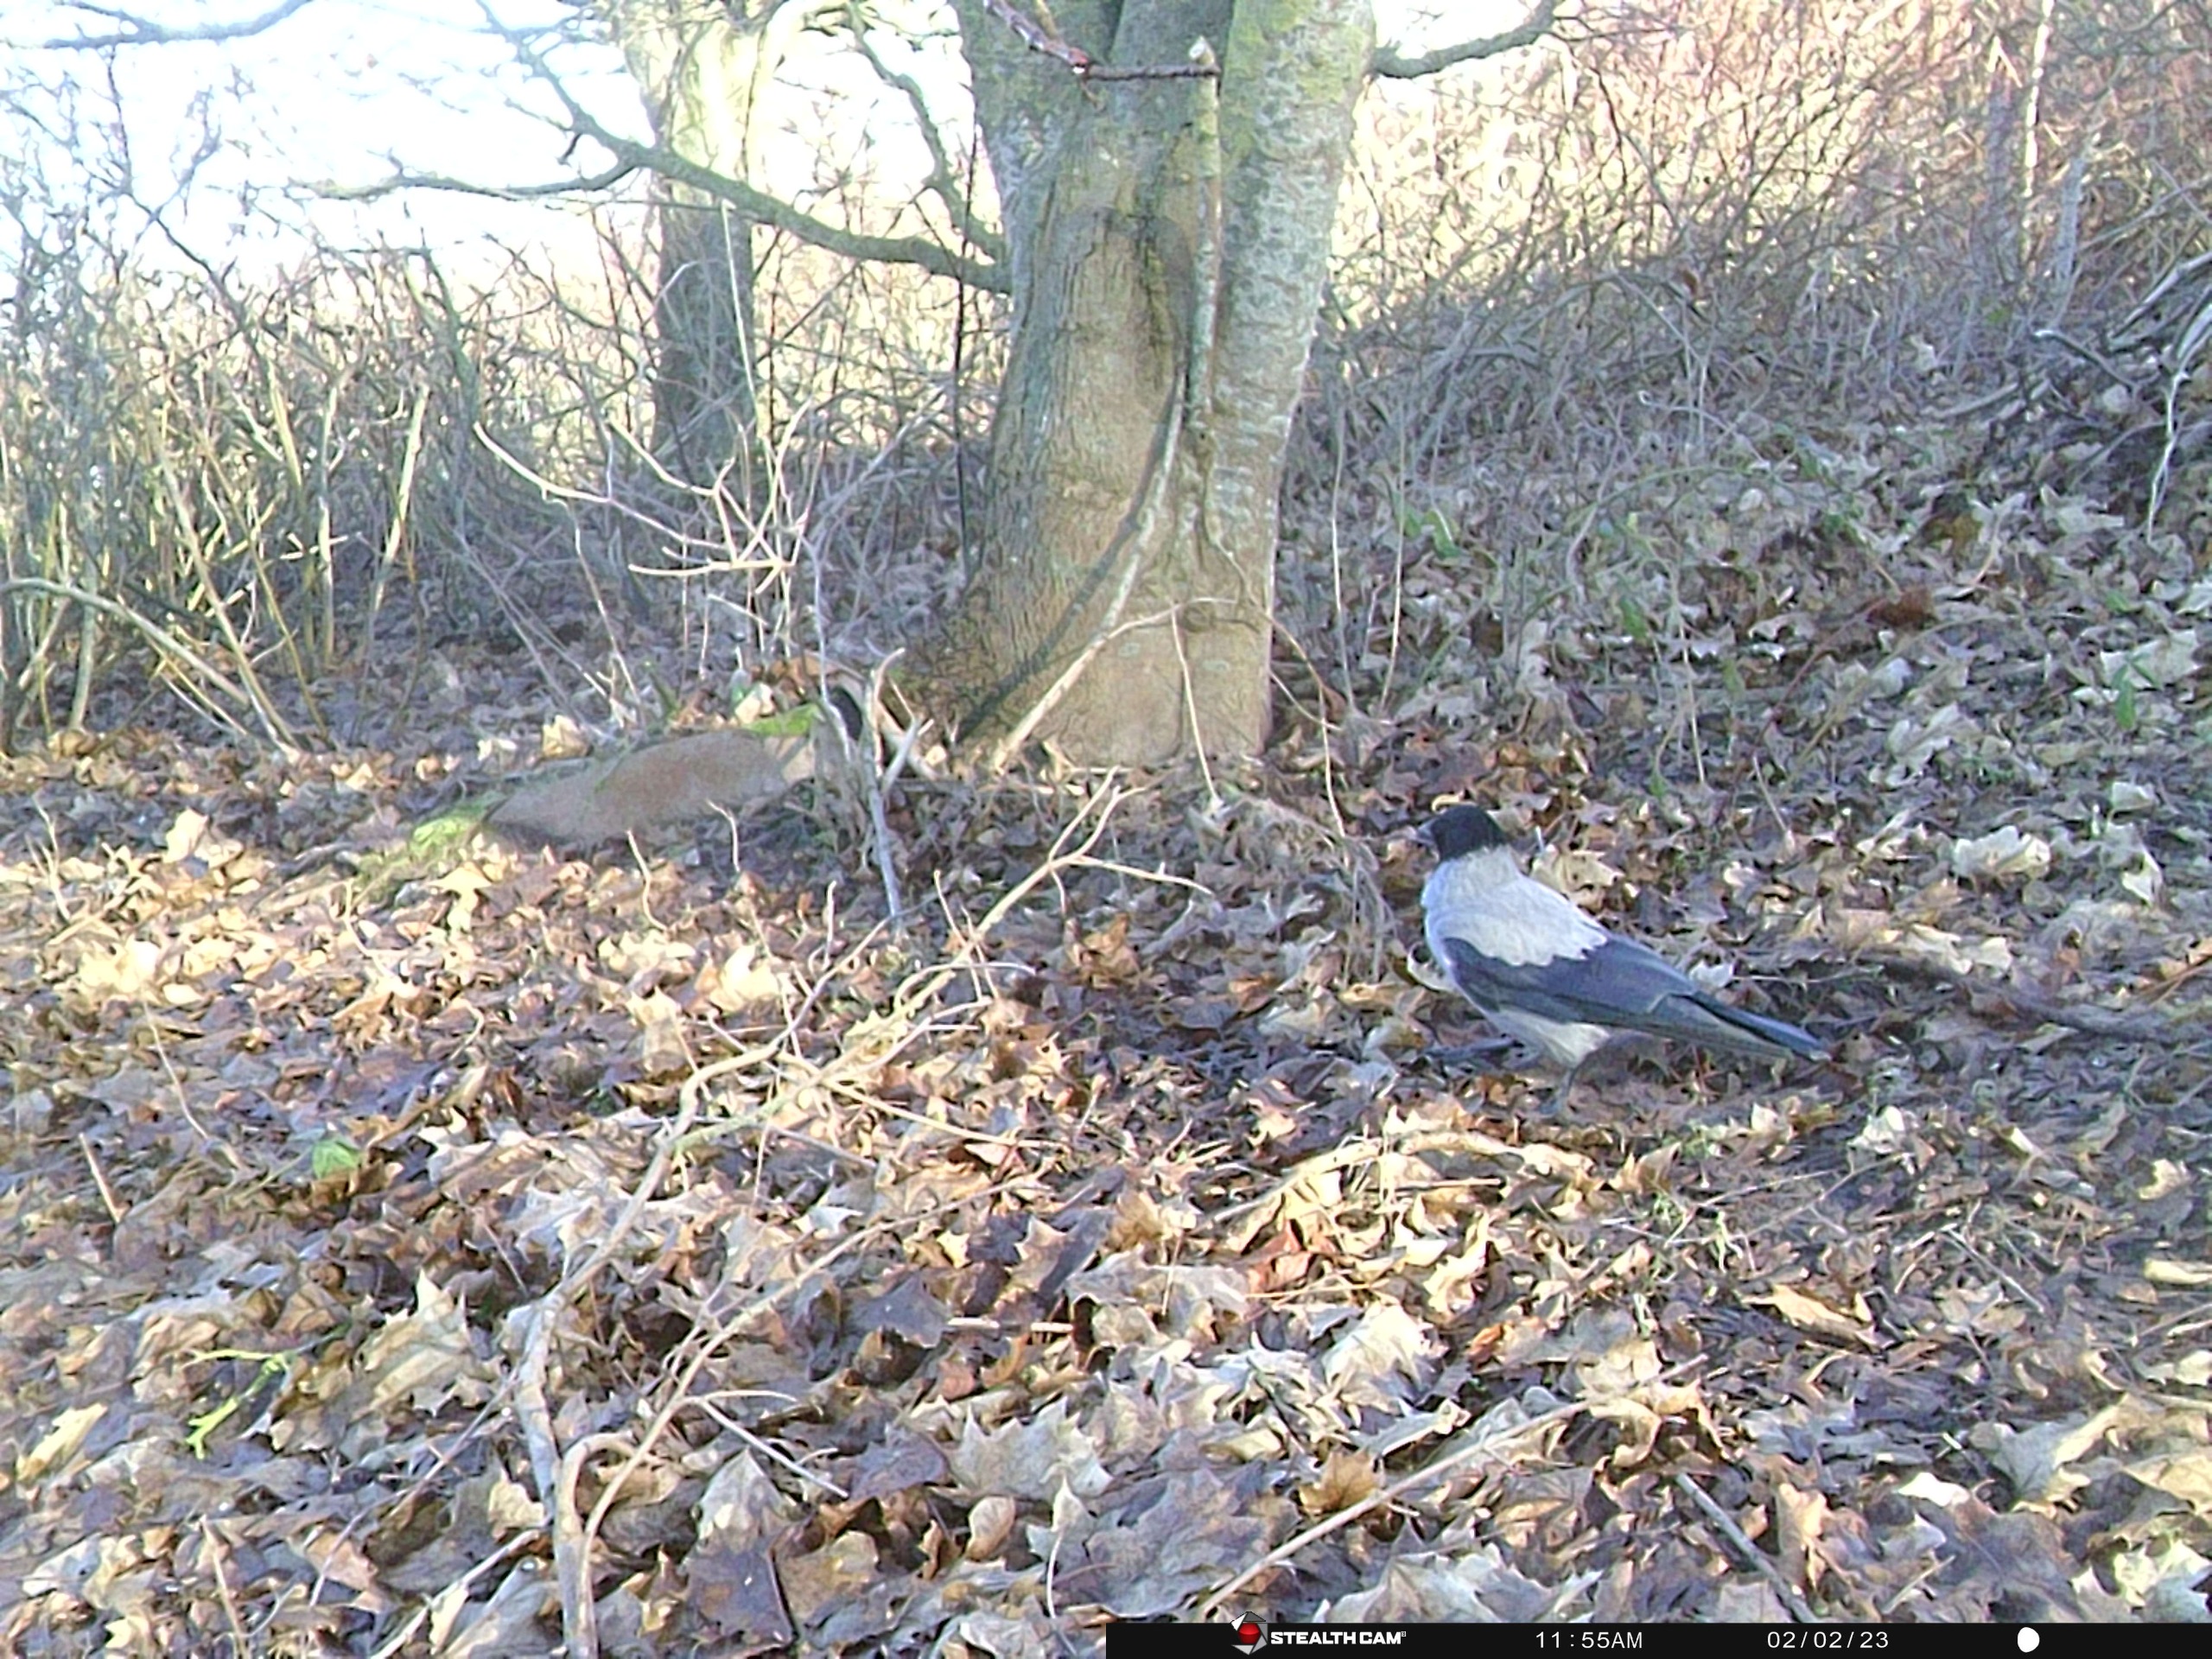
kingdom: Animalia
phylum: Chordata
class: Aves
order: Passeriformes
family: Corvidae
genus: Corvus
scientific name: Corvus cornix
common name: Gråkrage
